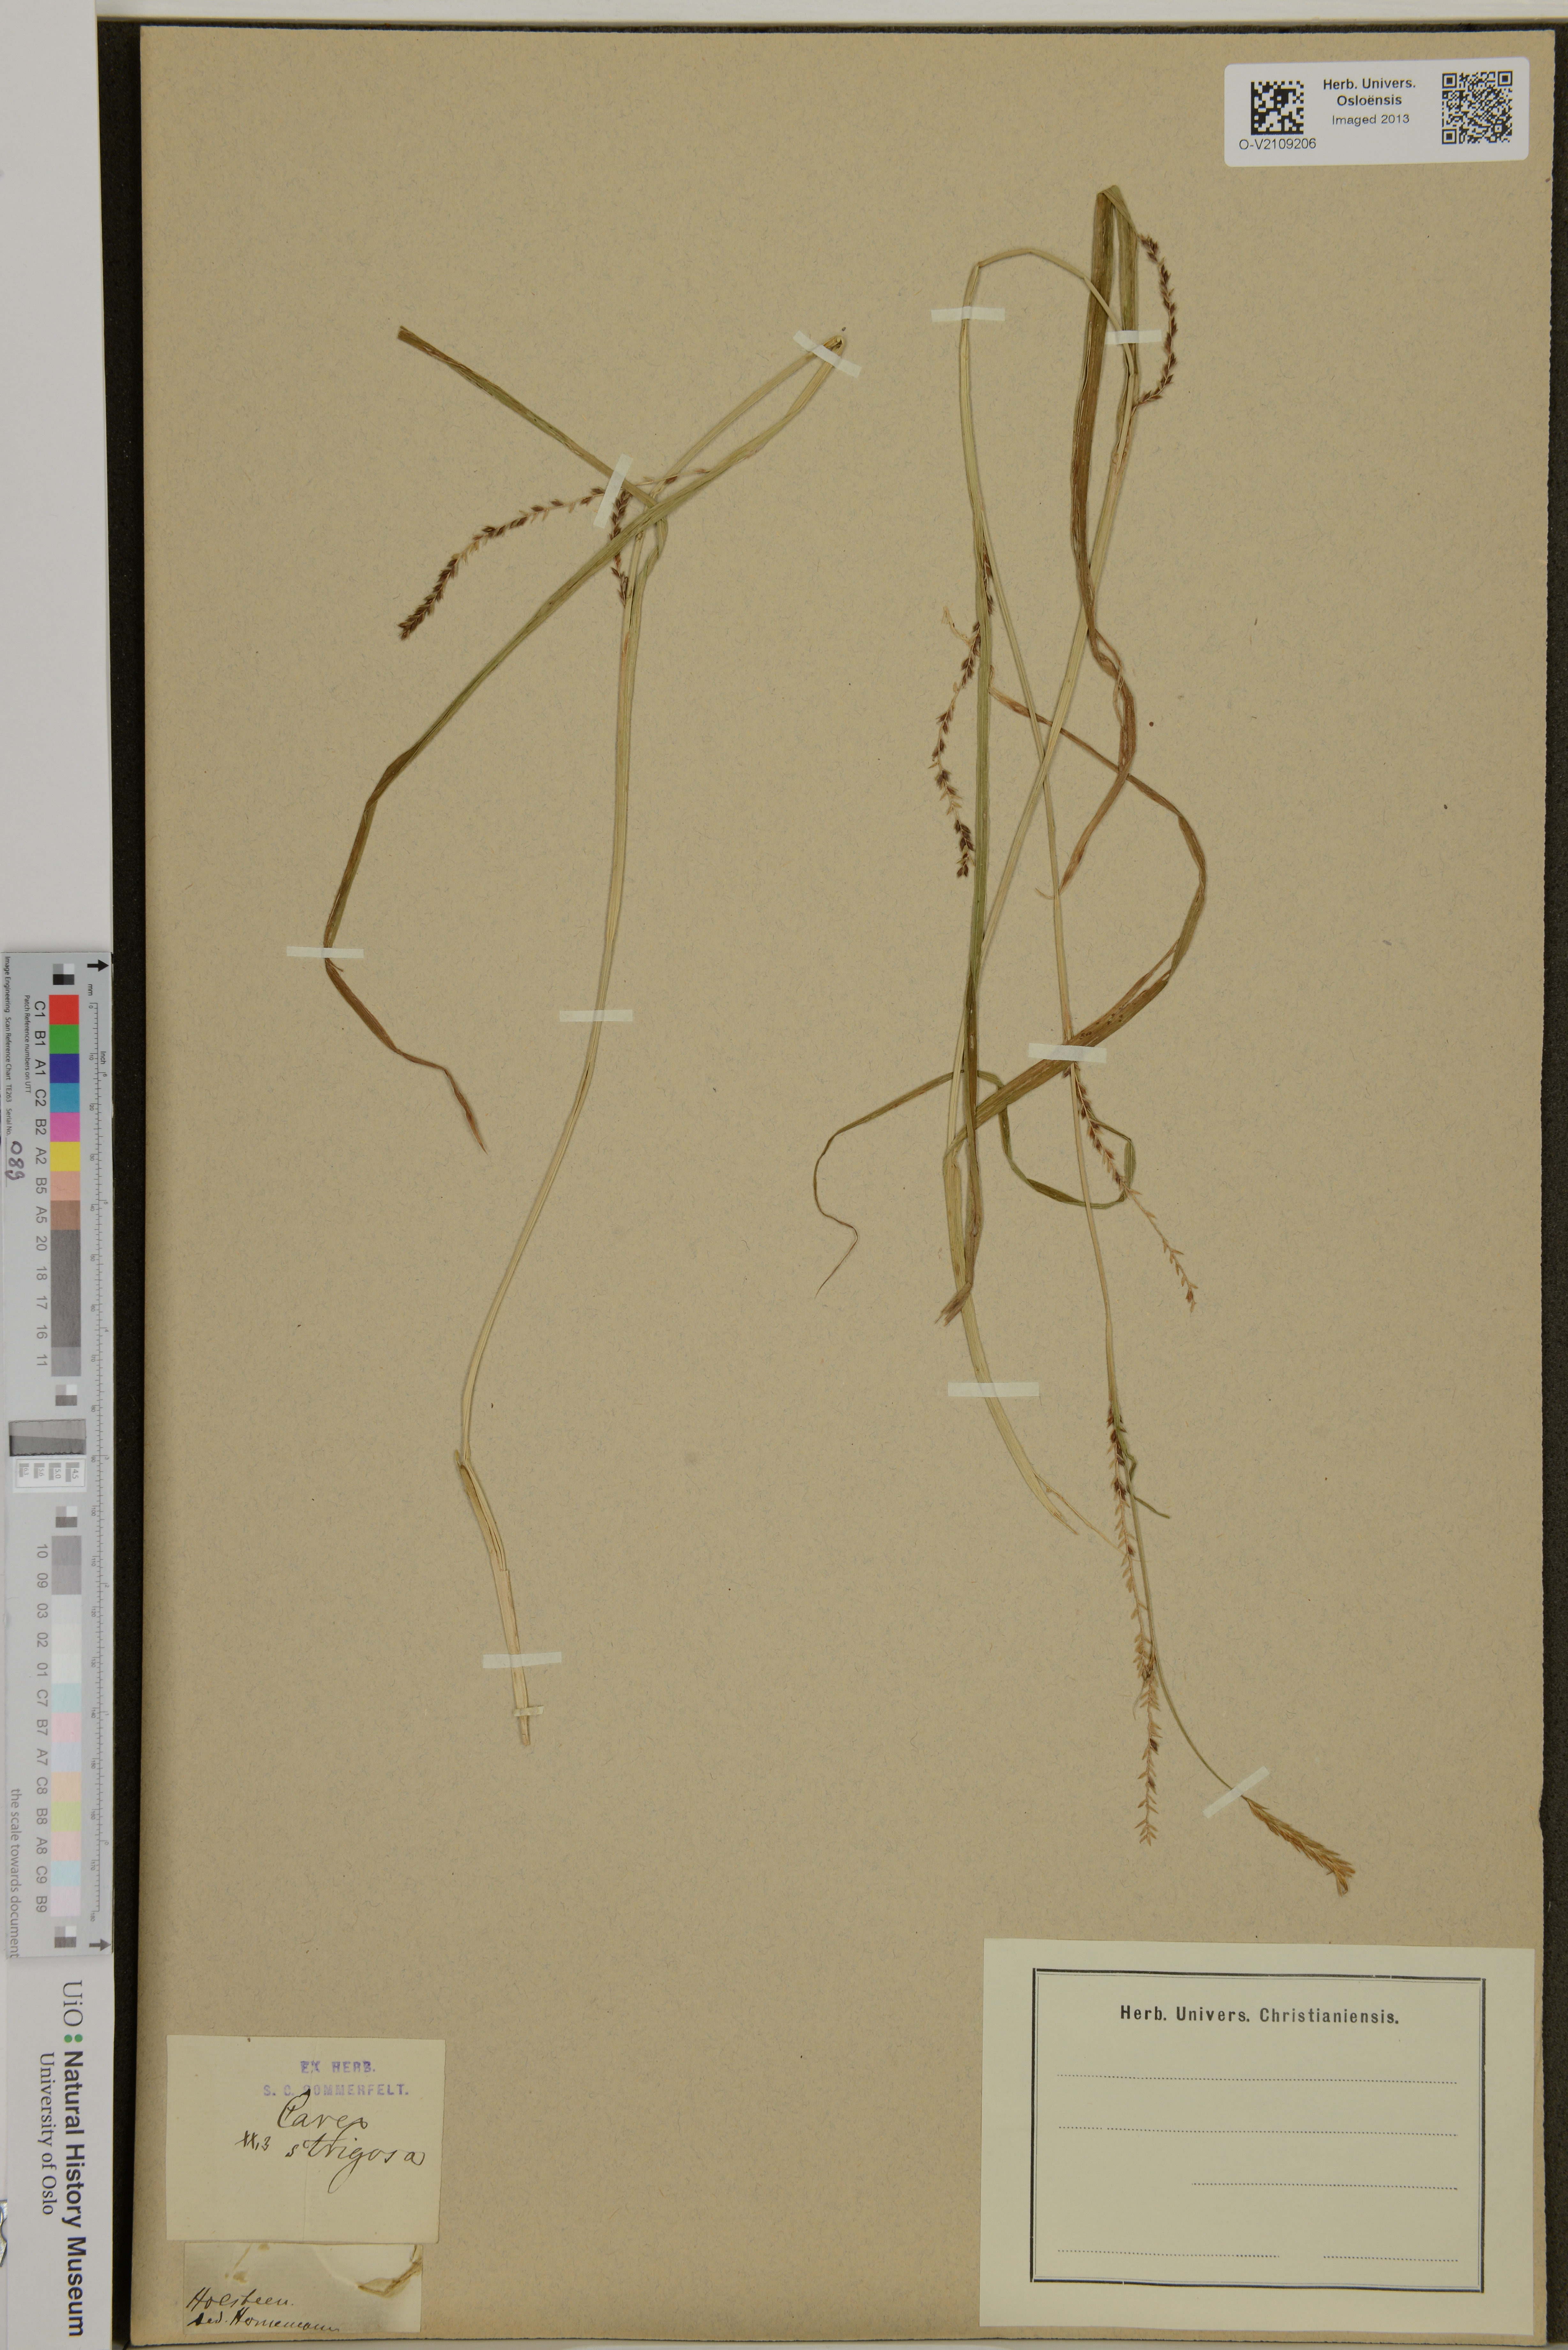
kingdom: Plantae
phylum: Tracheophyta
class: Liliopsida
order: Poales
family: Cyperaceae
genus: Carex
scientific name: Carex strigosa
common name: Thin-spiked wood-sedge
